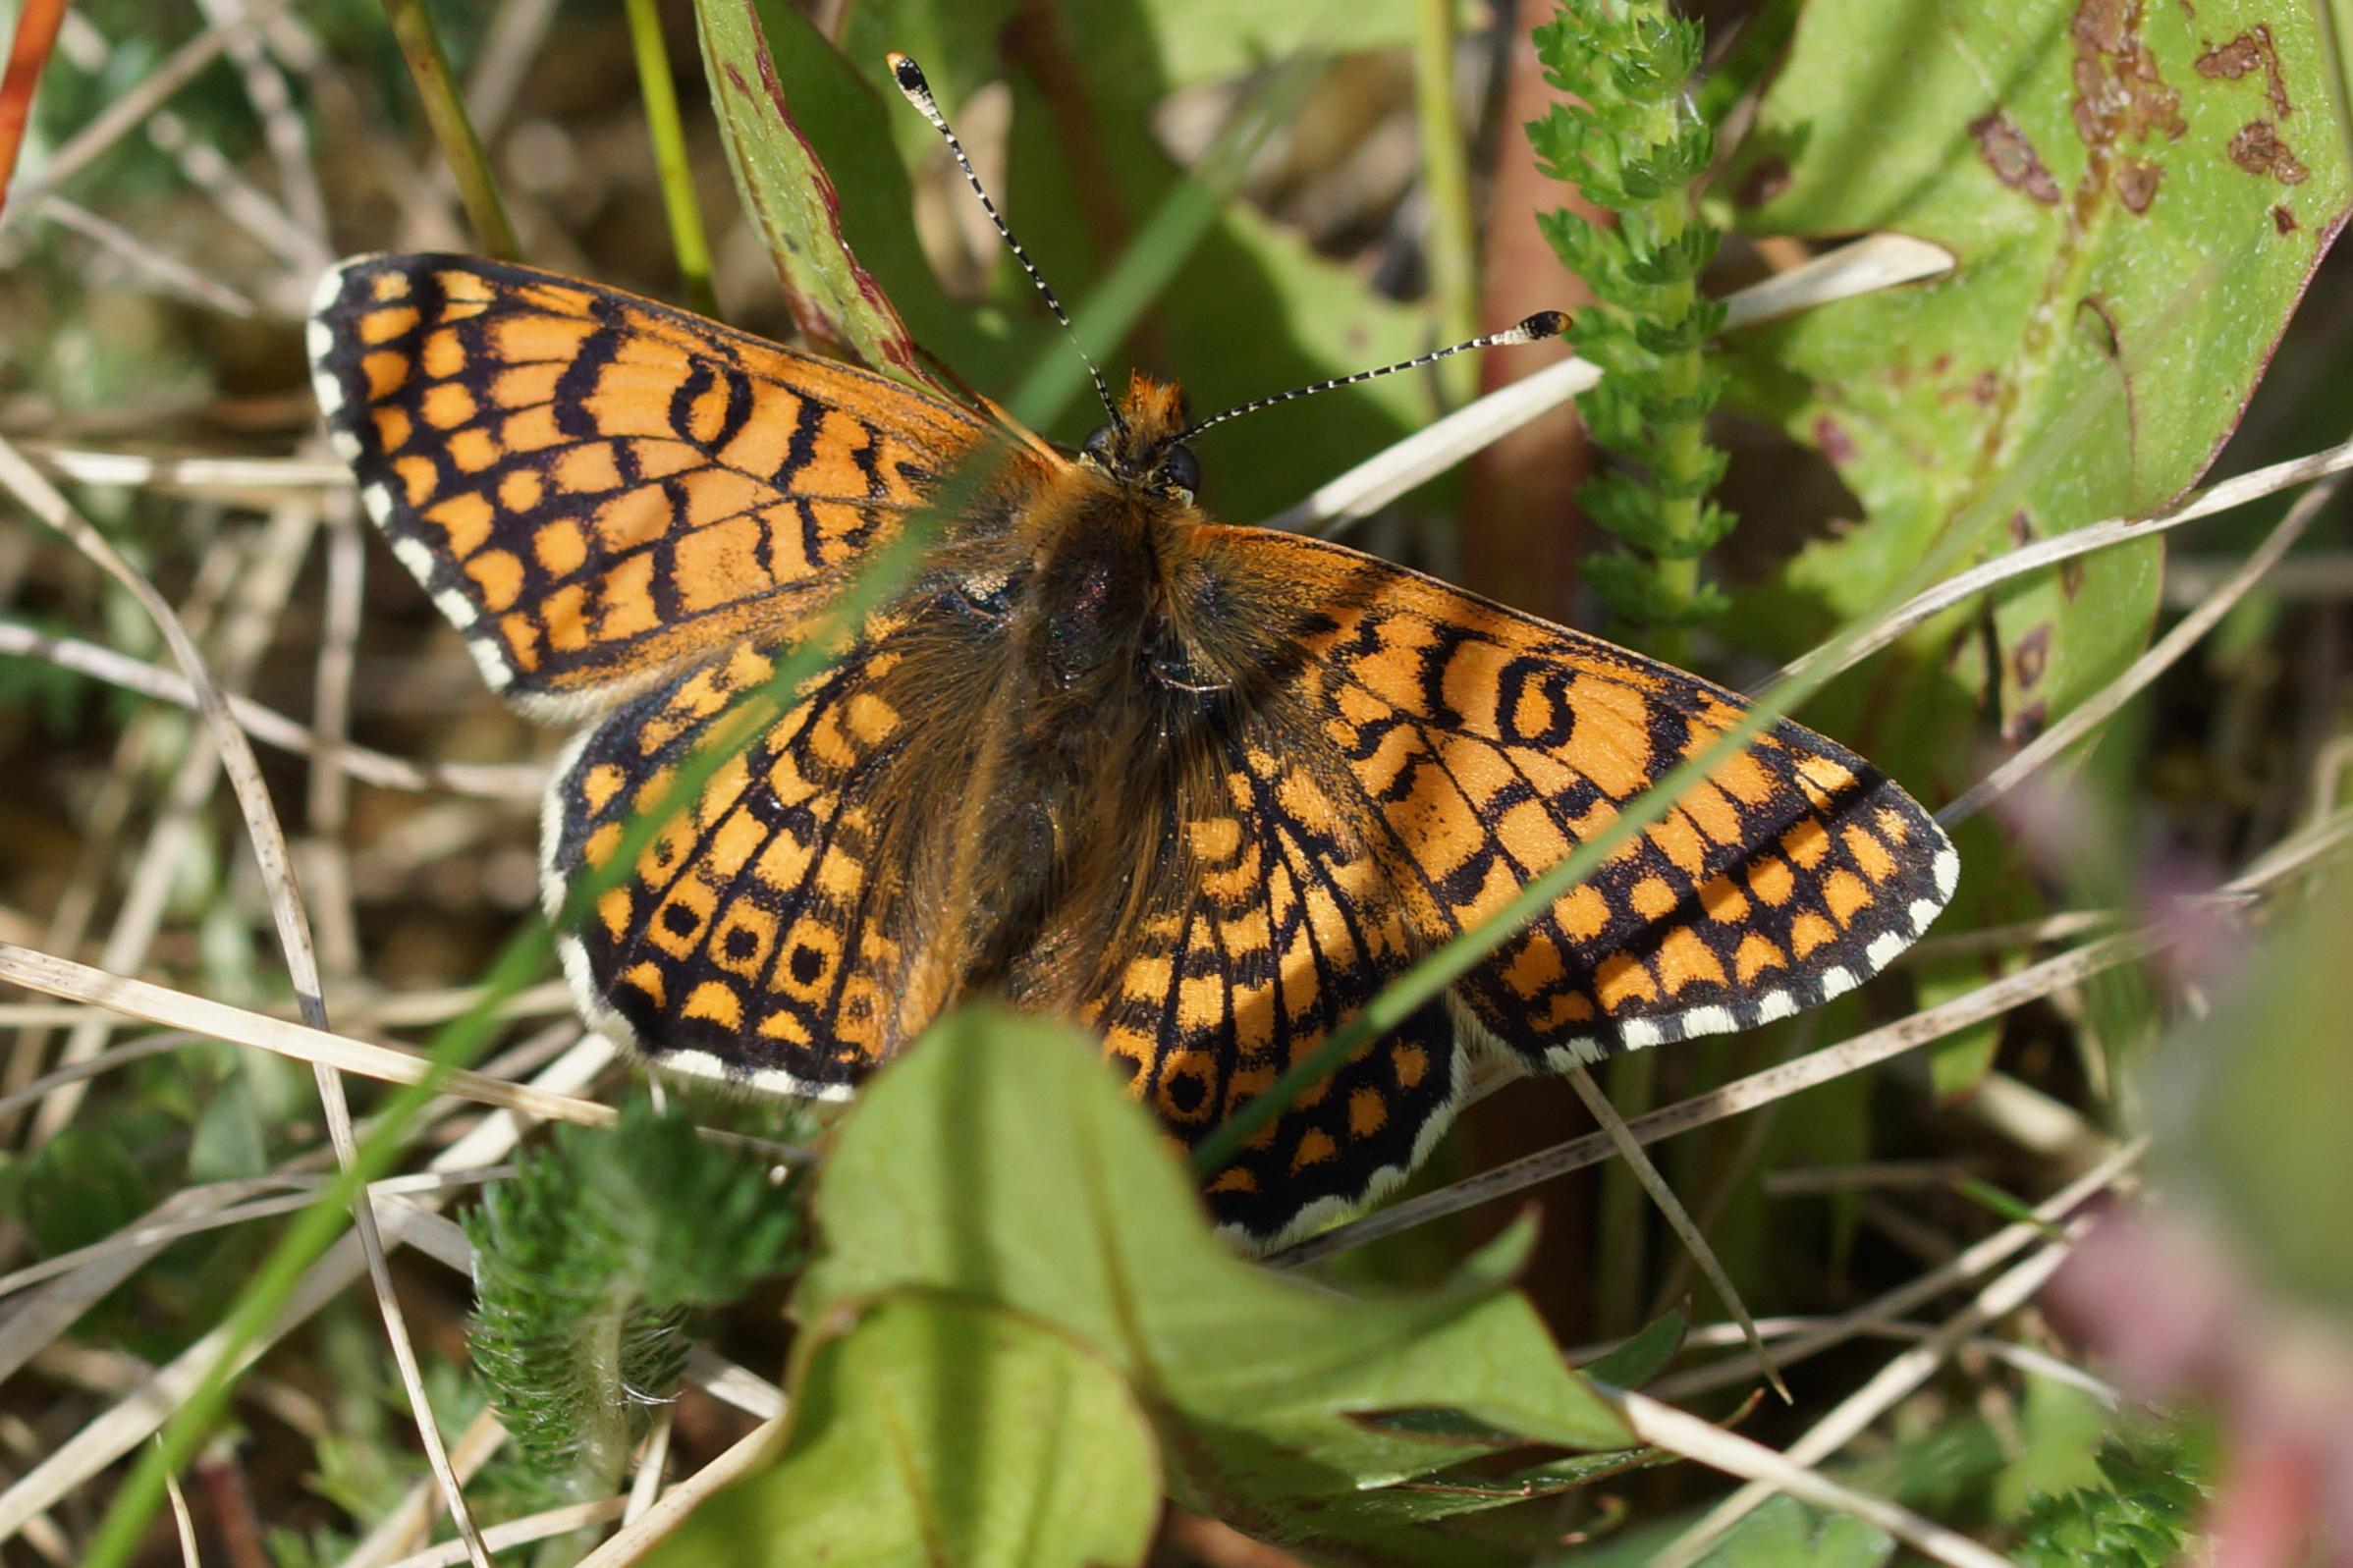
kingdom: Animalia
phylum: Arthropoda
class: Insecta
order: Lepidoptera
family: Nymphalidae
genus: Melitaea
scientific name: Melitaea cinxia
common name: Okkergul pletvinge
